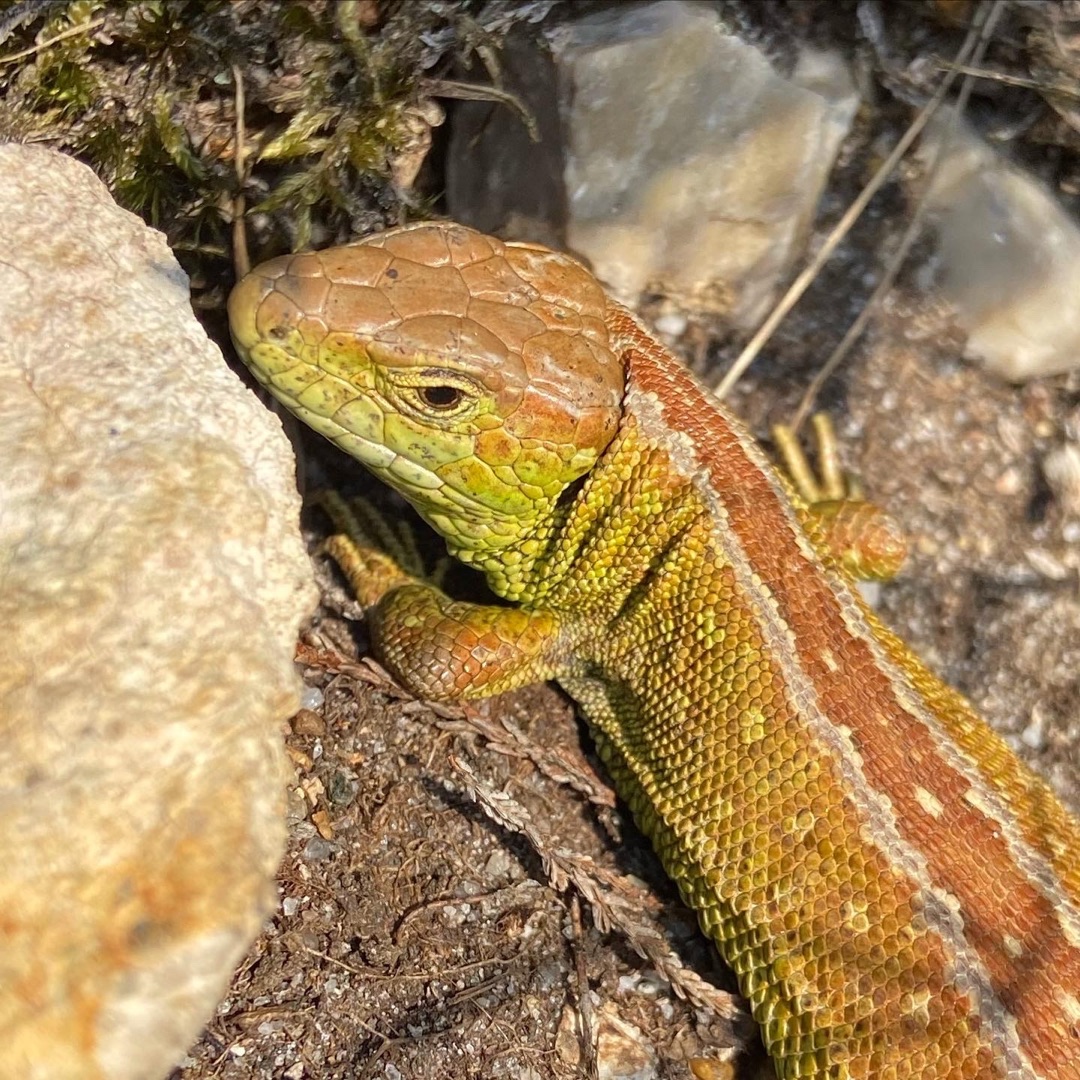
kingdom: Animalia
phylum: Chordata
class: Squamata
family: Lacertidae
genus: Lacerta
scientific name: Lacerta agilis
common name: Markfirben
